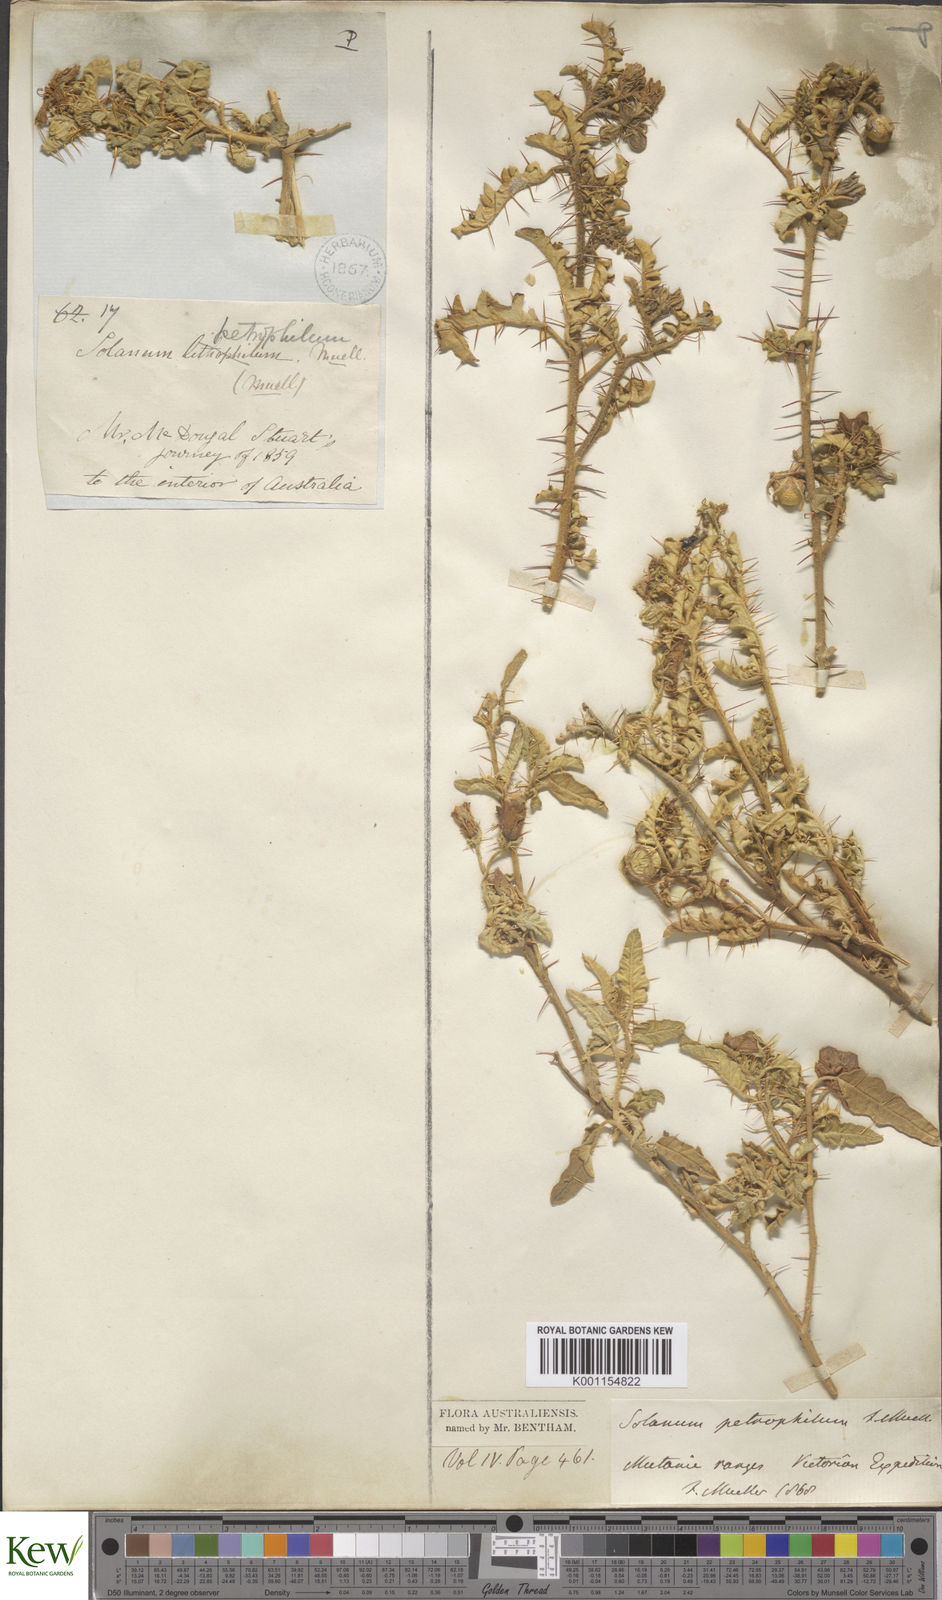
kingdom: Plantae
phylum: Tracheophyta
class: Magnoliopsida
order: Solanales
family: Solanaceae
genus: Solanum
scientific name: Solanum petrophilum
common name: Rock nightshade
